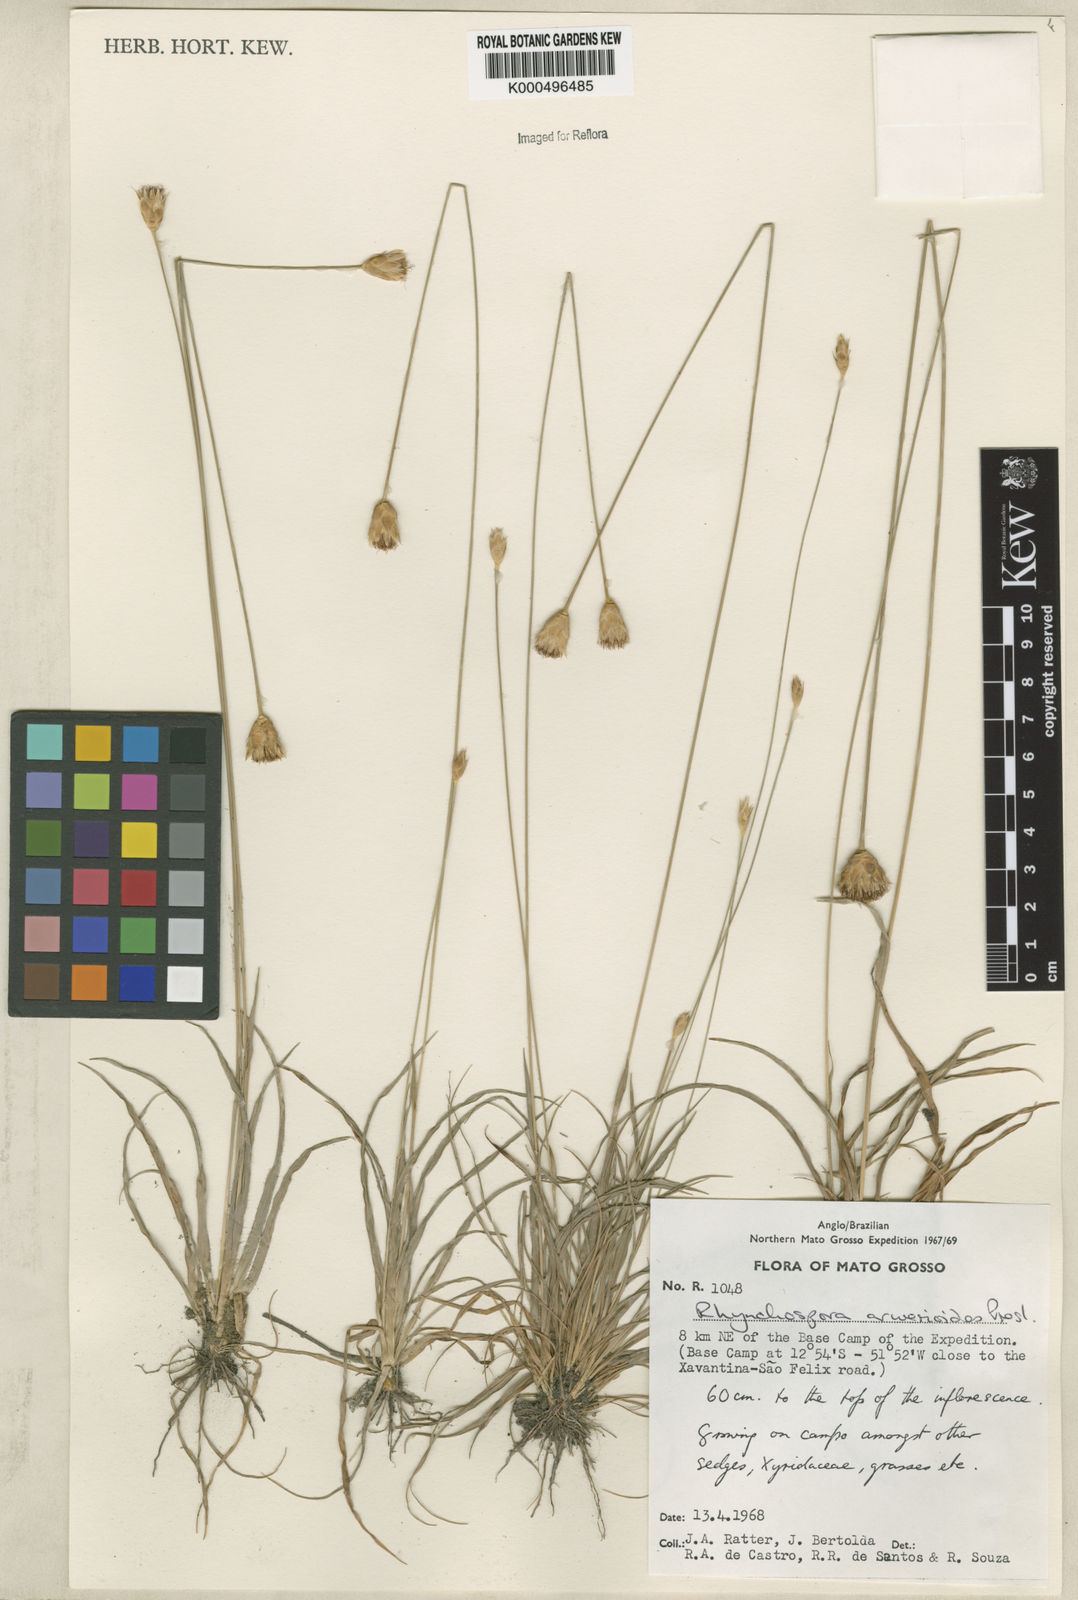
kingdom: Plantae
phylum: Tracheophyta
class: Liliopsida
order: Poales
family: Cyperaceae
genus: Rhynchospora
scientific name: Rhynchospora armerioides
